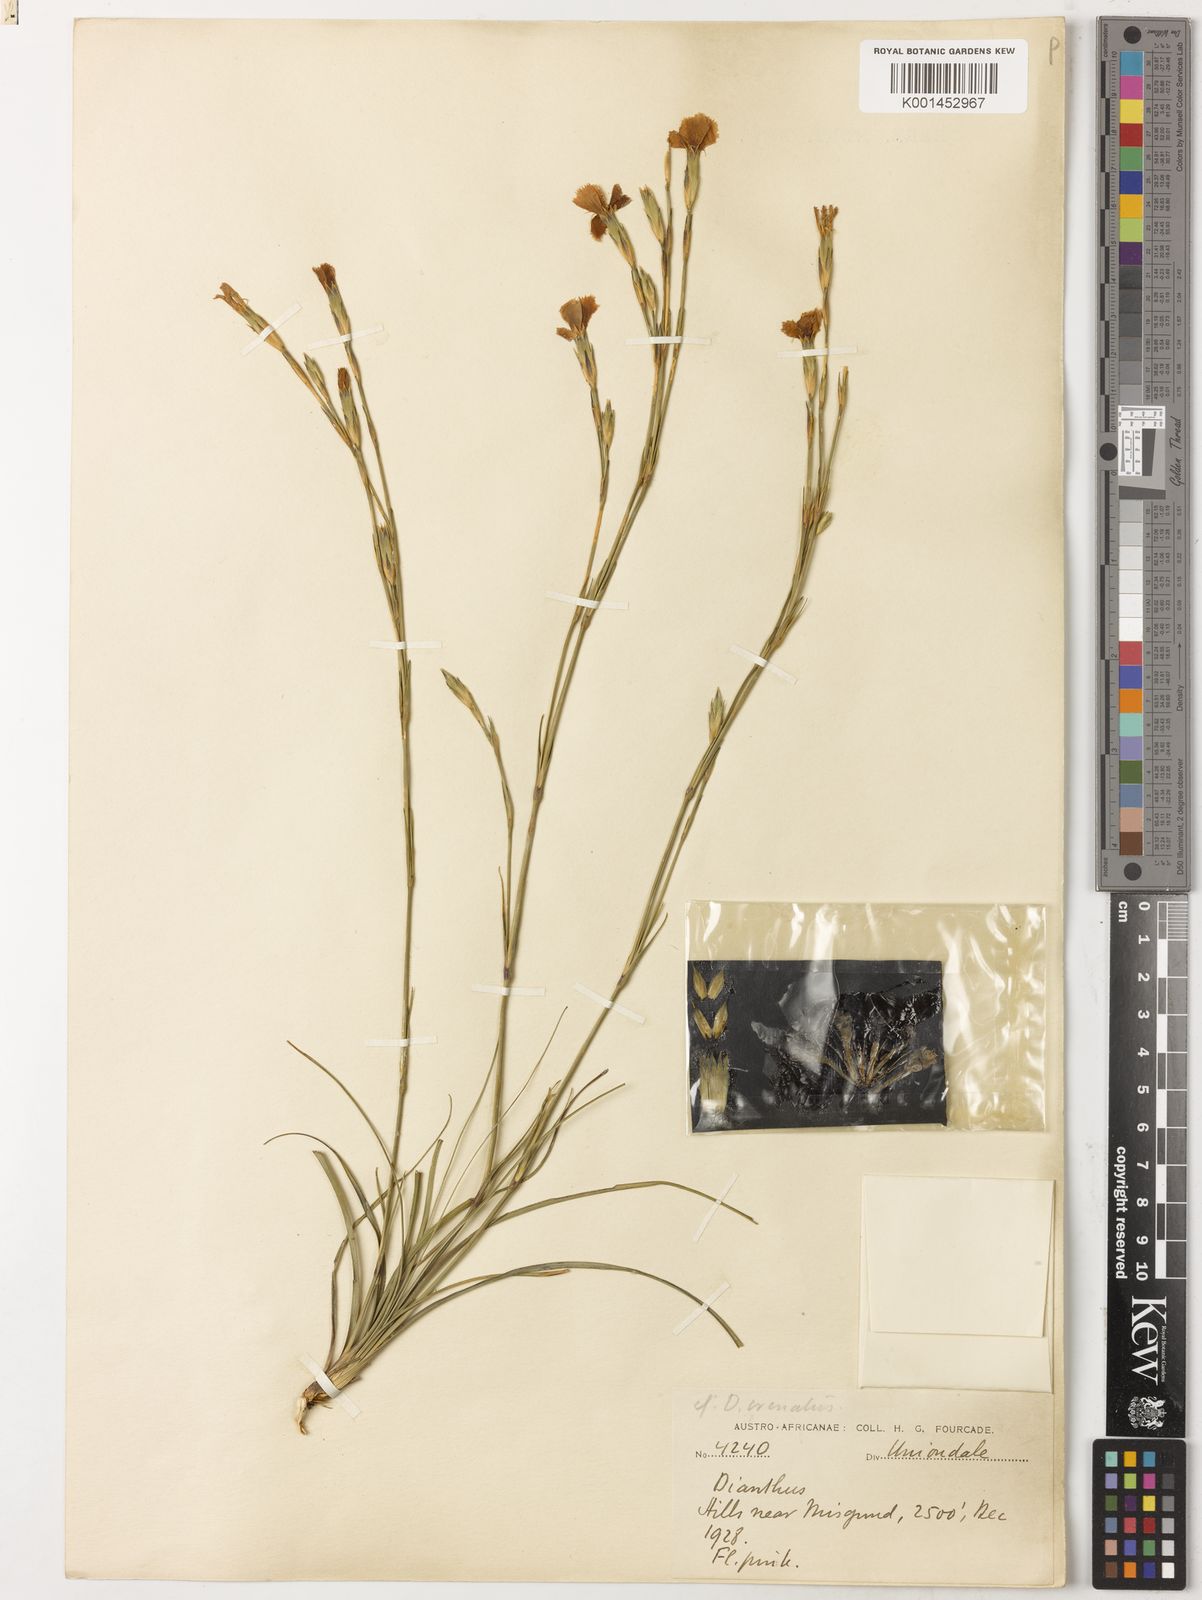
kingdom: Plantae
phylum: Tracheophyta
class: Magnoliopsida
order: Caryophyllales
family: Caryophyllaceae
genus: Dianthus
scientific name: Dianthus basuticus
